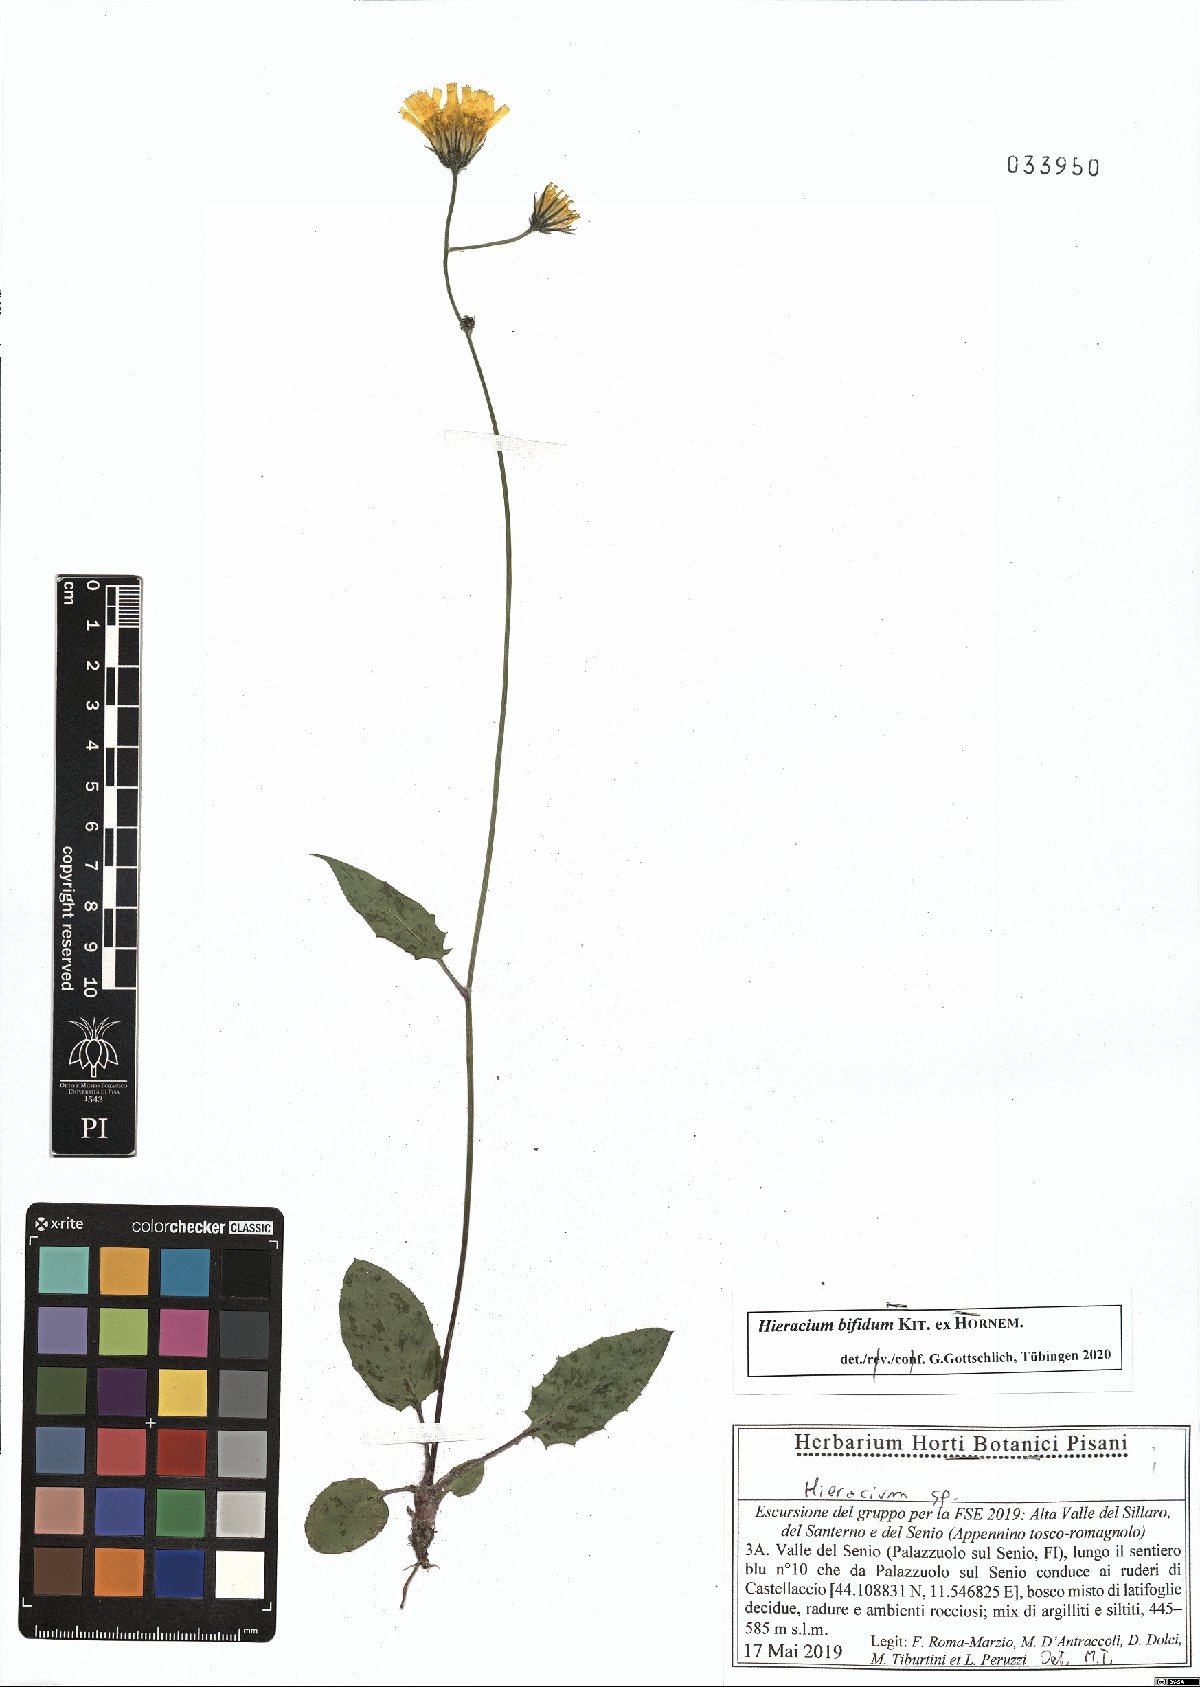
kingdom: Plantae
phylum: Tracheophyta
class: Magnoliopsida
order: Asterales
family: Asteraceae
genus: Hieracium
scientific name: Hieracium bifidum
